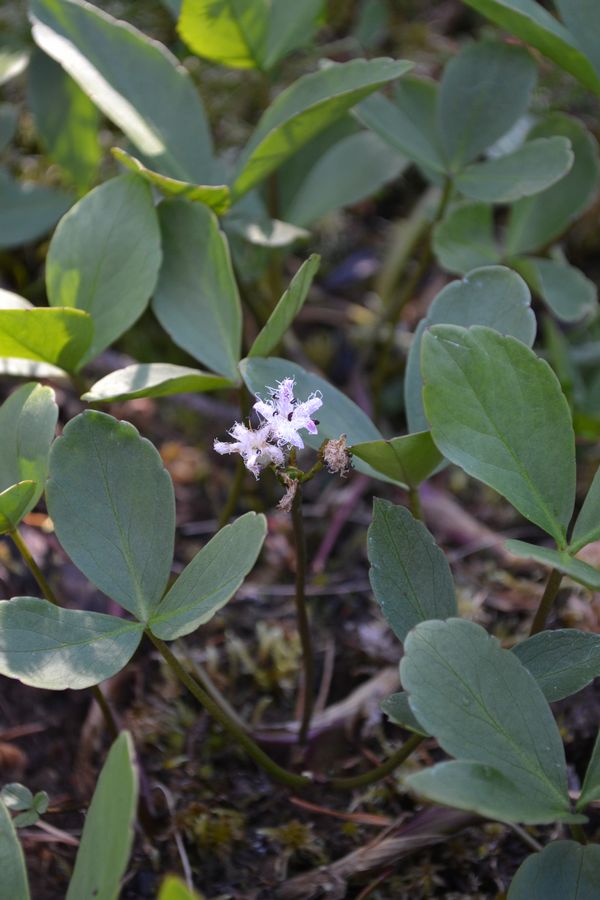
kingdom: Plantae
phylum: Tracheophyta
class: Magnoliopsida
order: Asterales
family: Menyanthaceae
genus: Menyanthes
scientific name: Menyanthes trifoliata
